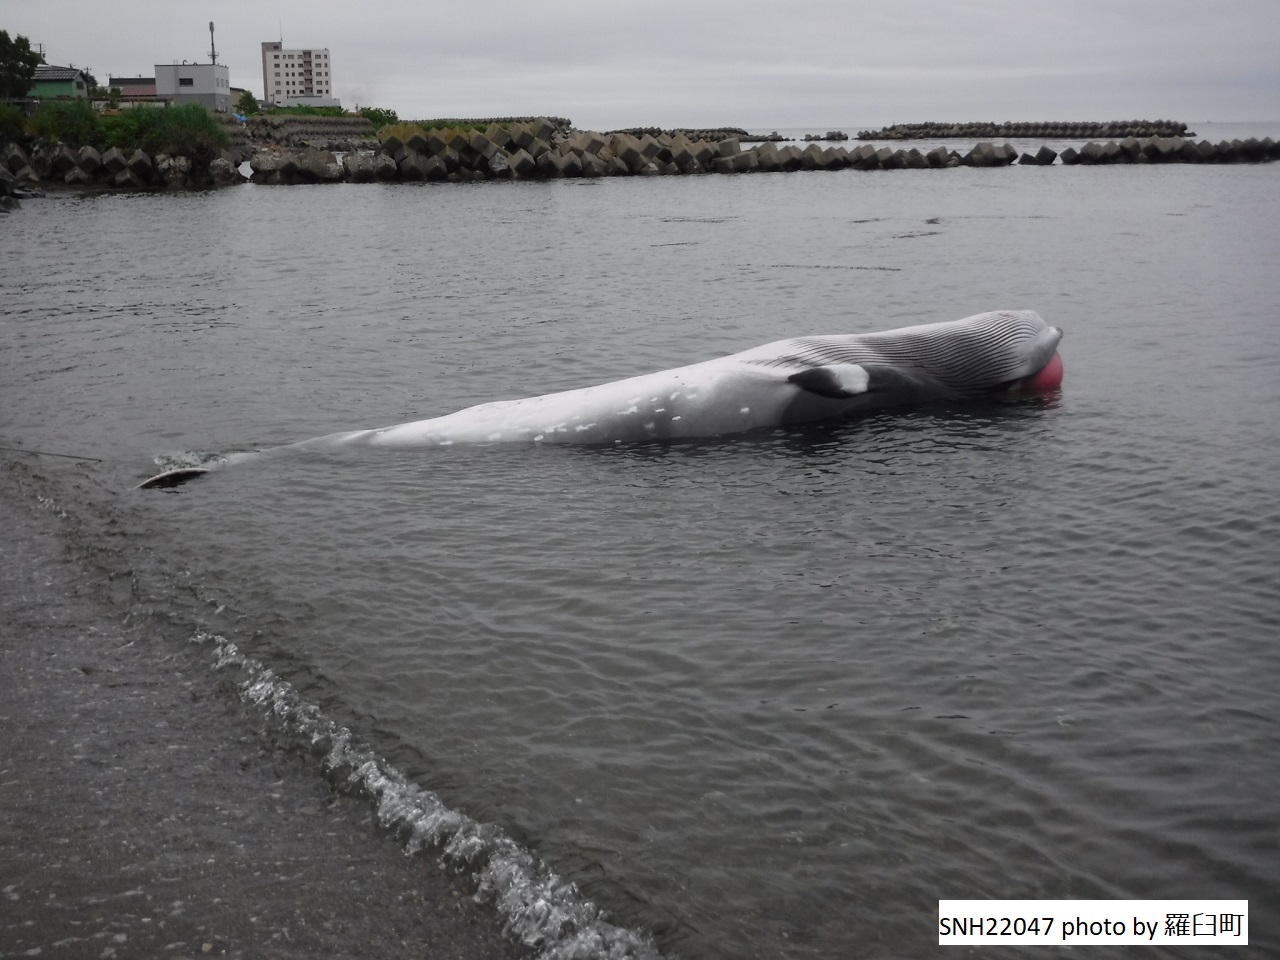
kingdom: Animalia
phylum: Chordata
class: Mammalia
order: Cetacea
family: Balaenopteridae
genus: Balaenoptera
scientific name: Balaenoptera acutorostrata
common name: Minke whale
